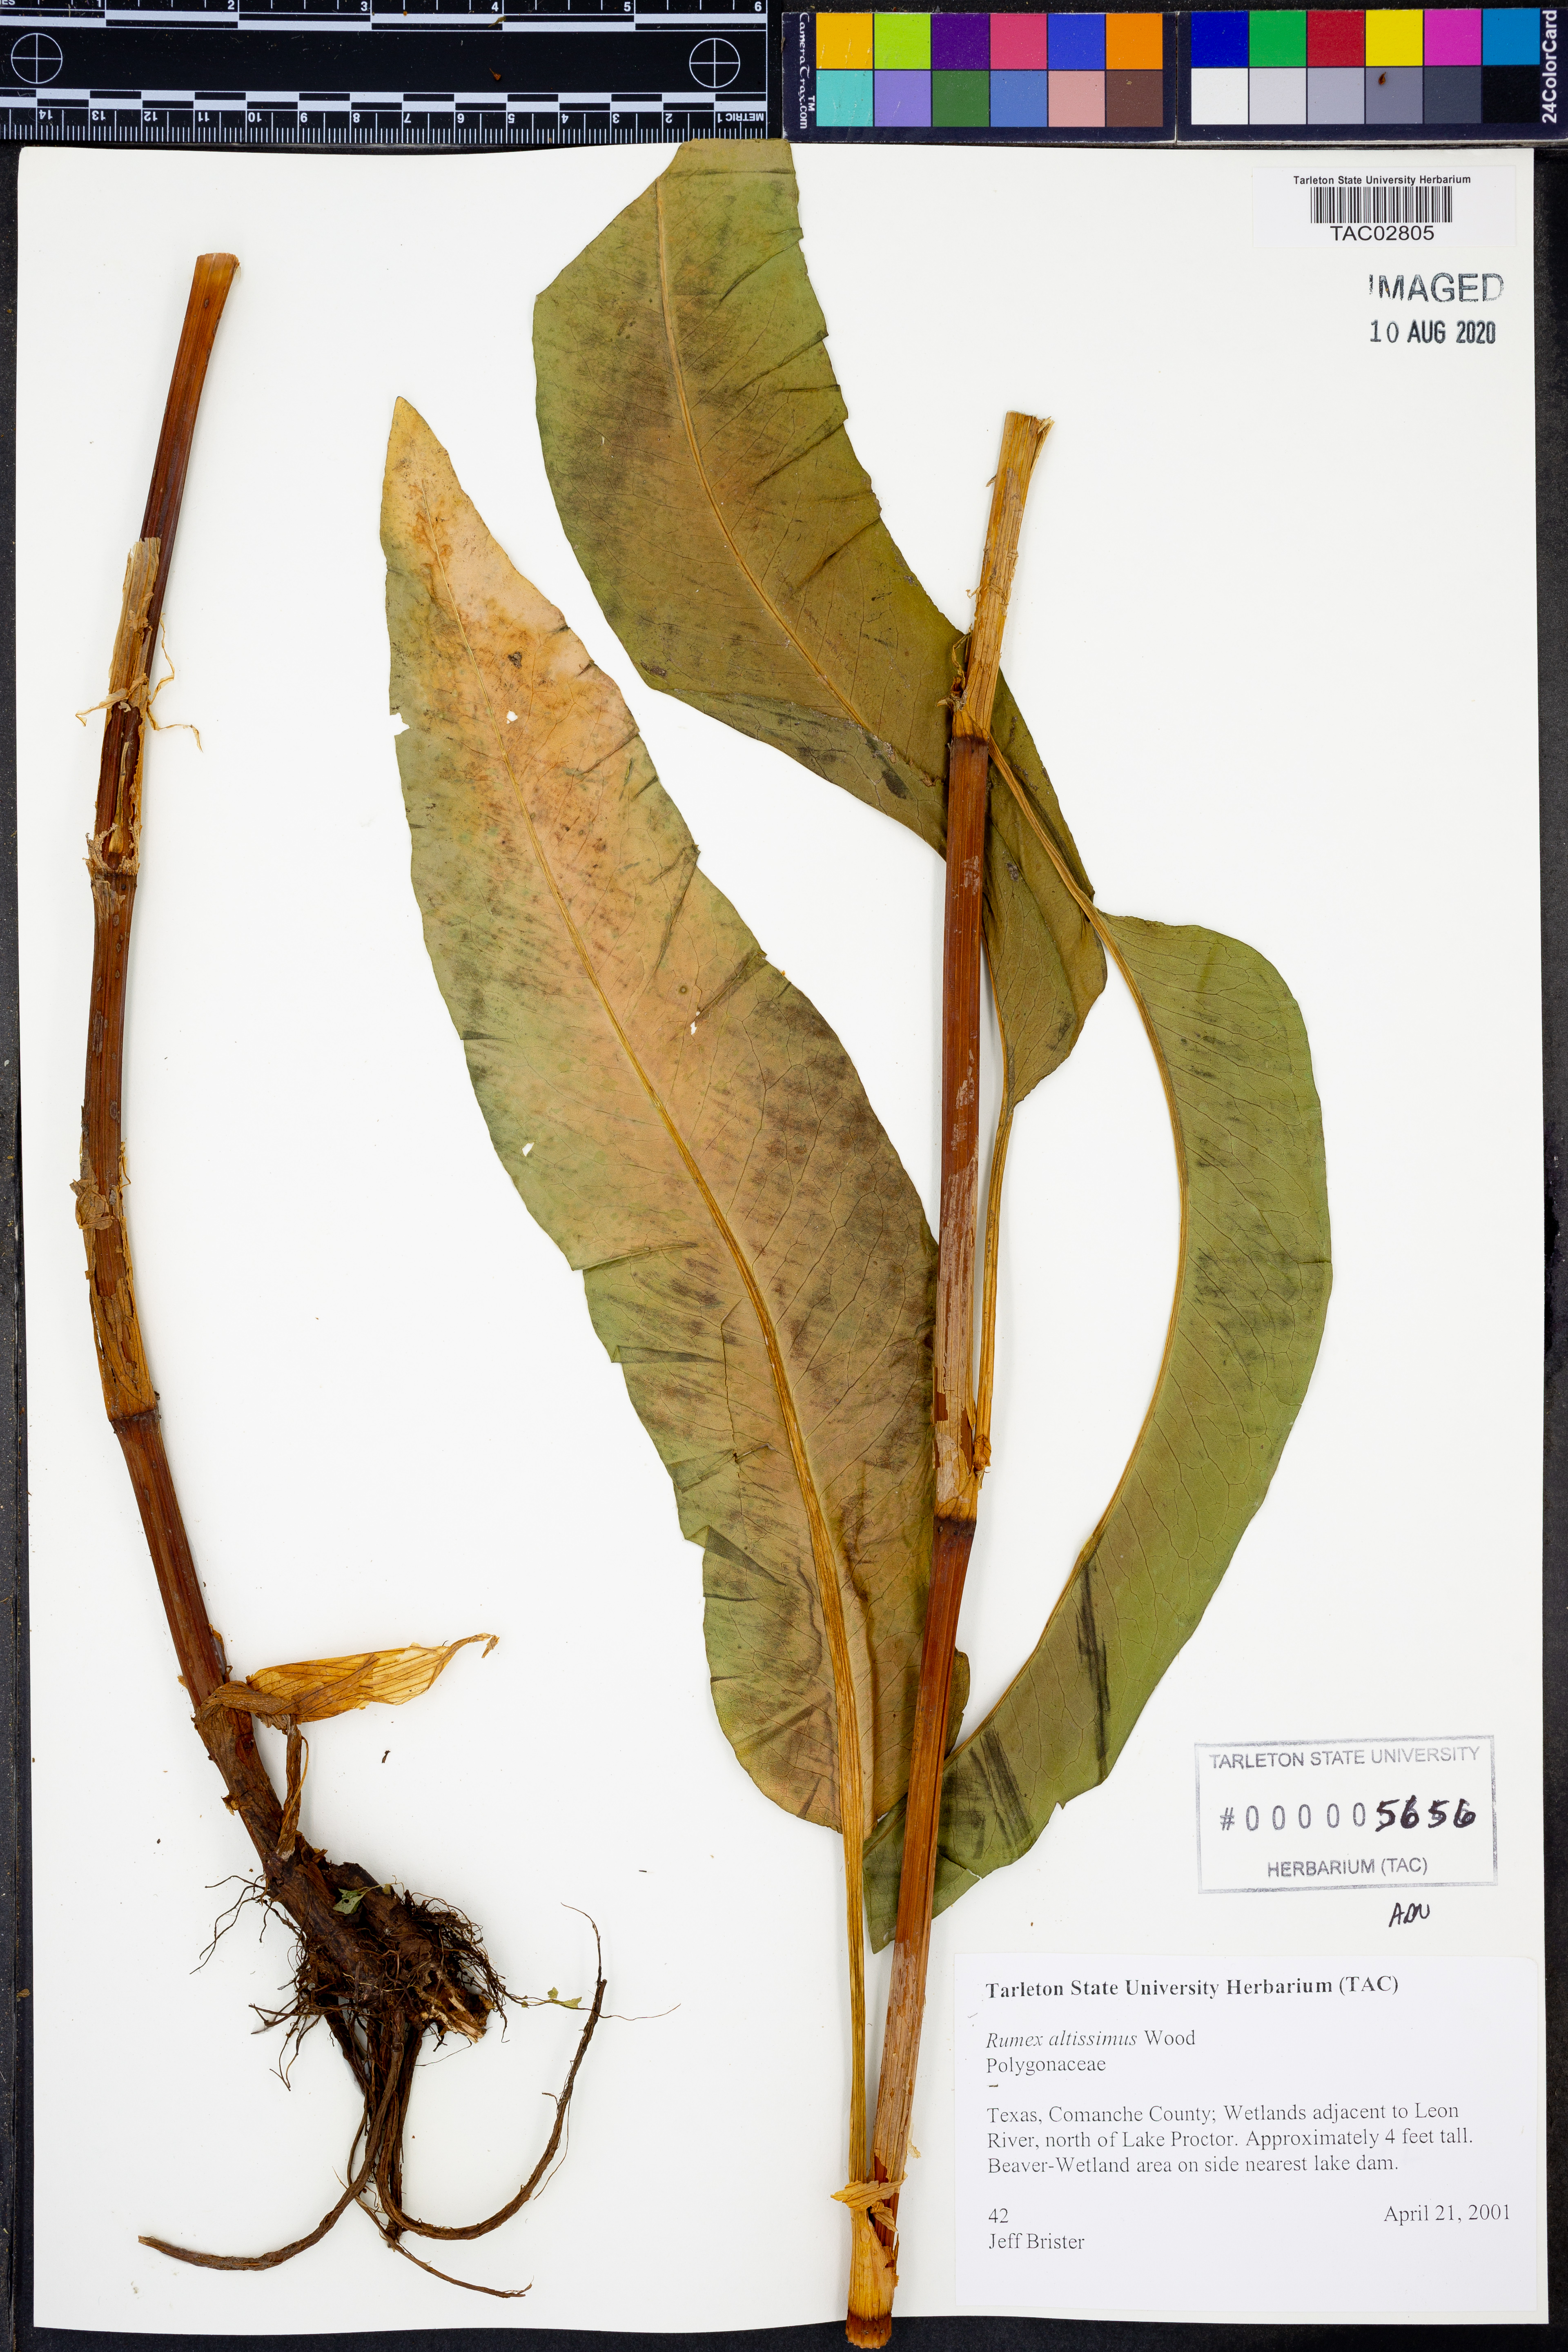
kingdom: Plantae
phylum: Tracheophyta
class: Magnoliopsida
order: Caryophyllales
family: Polygonaceae
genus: Rumex
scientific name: Rumex altissimus
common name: Smooth dock
